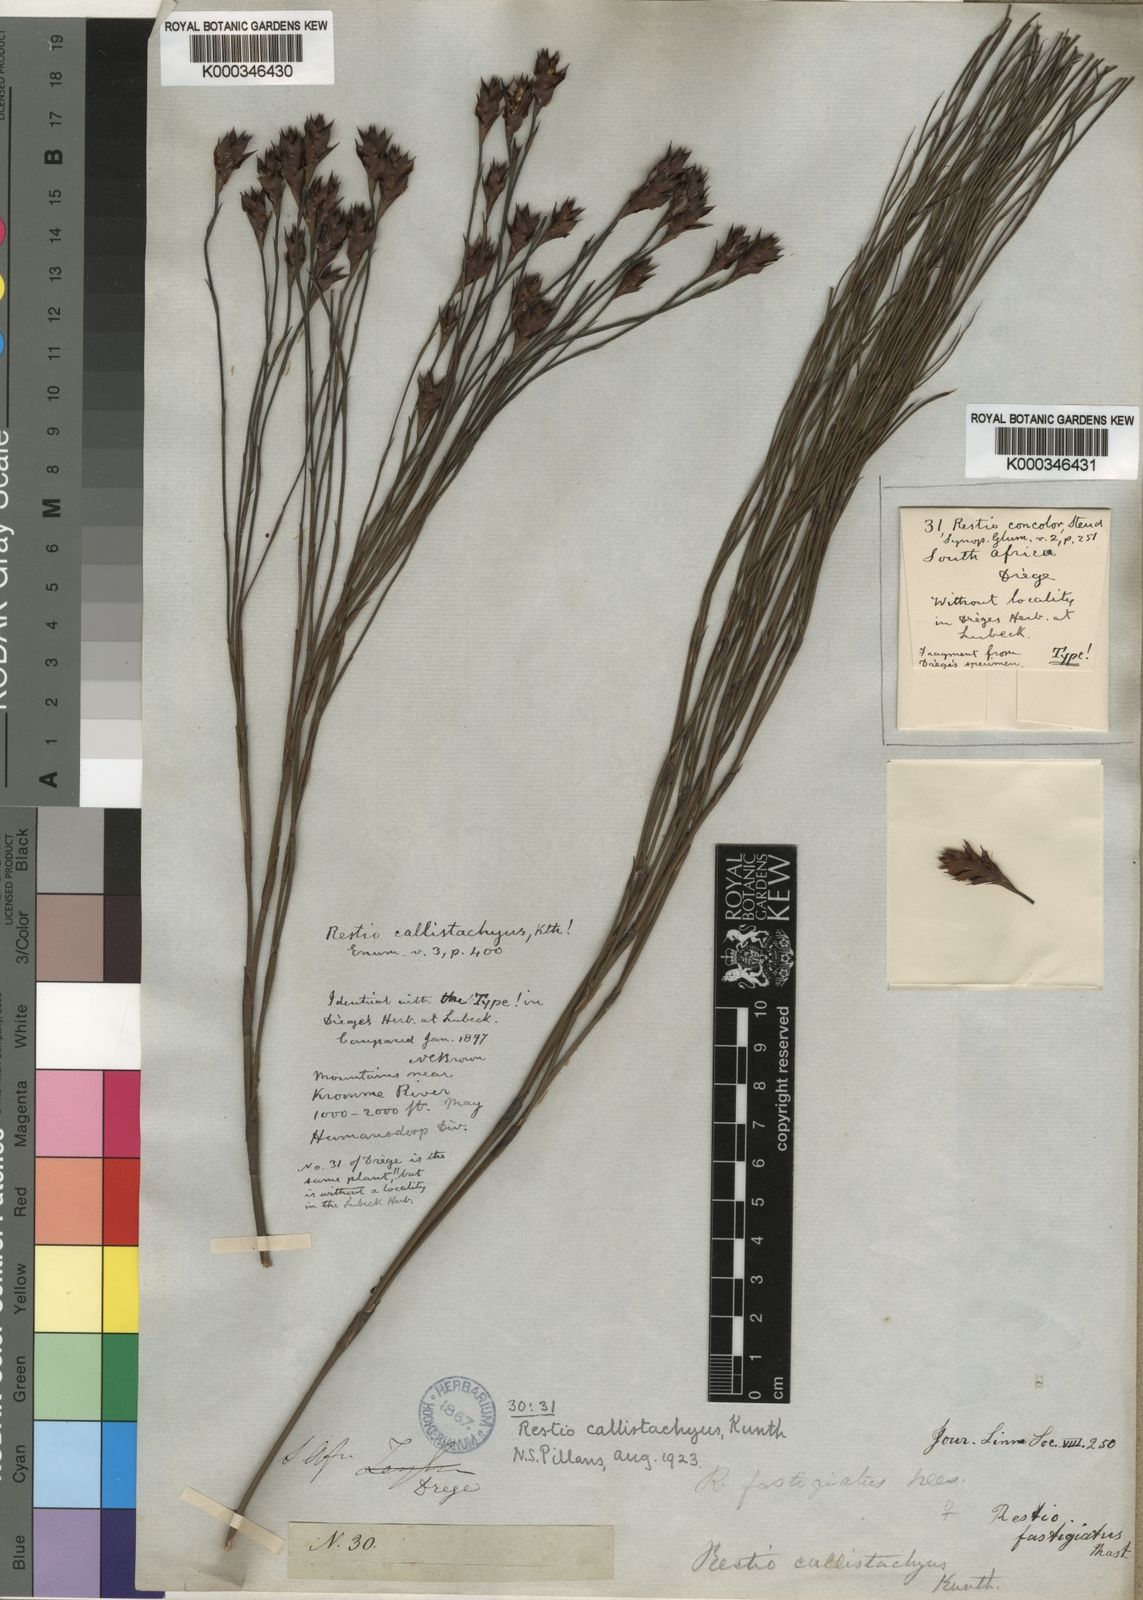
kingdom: Plantae
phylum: Tracheophyta
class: Liliopsida
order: Poales
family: Restionaceae
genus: Platycaulos
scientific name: Platycaulos callistachyus
